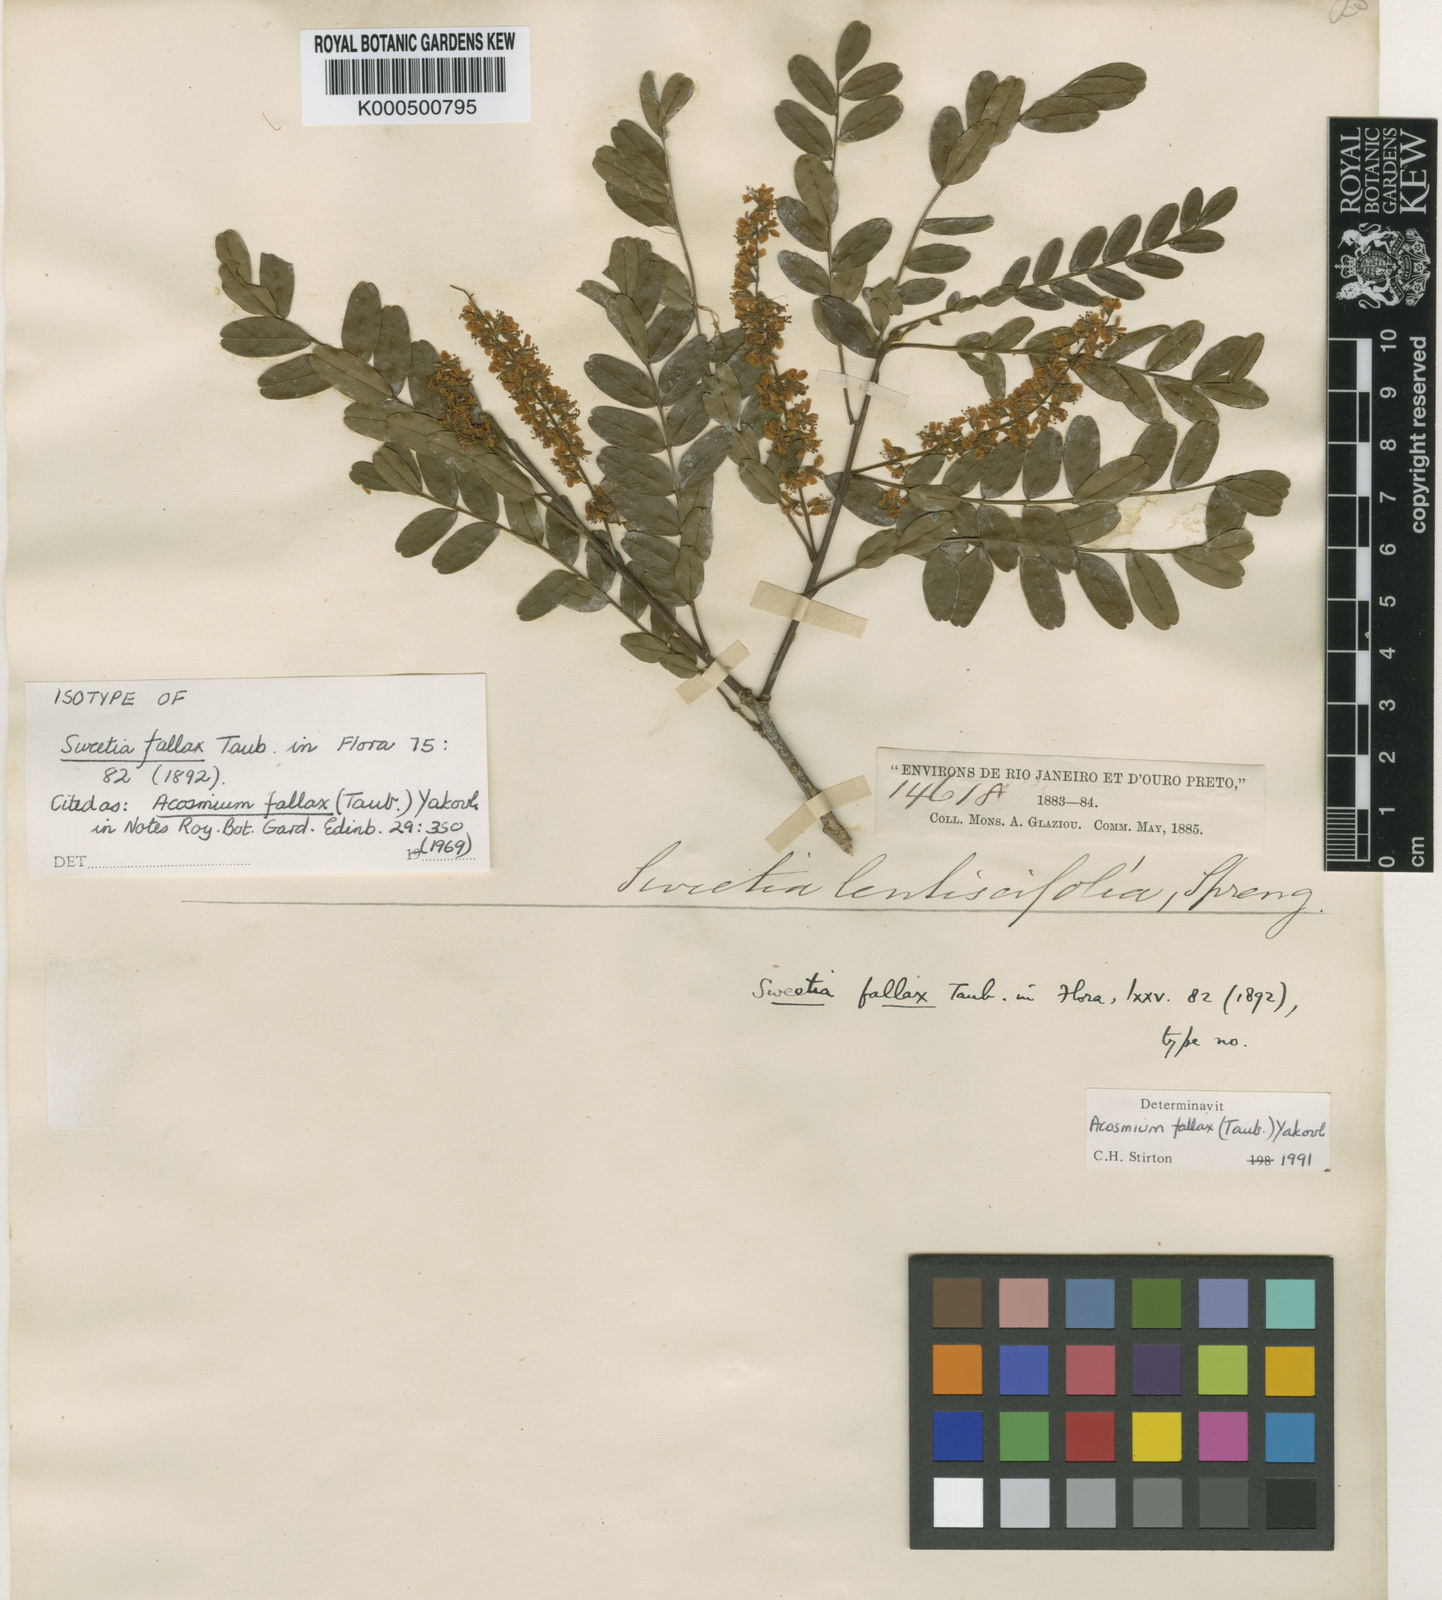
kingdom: Plantae
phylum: Tracheophyta
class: Magnoliopsida
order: Fabales
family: Fabaceae
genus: Acosmium
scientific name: Acosmium lentiscifolium
